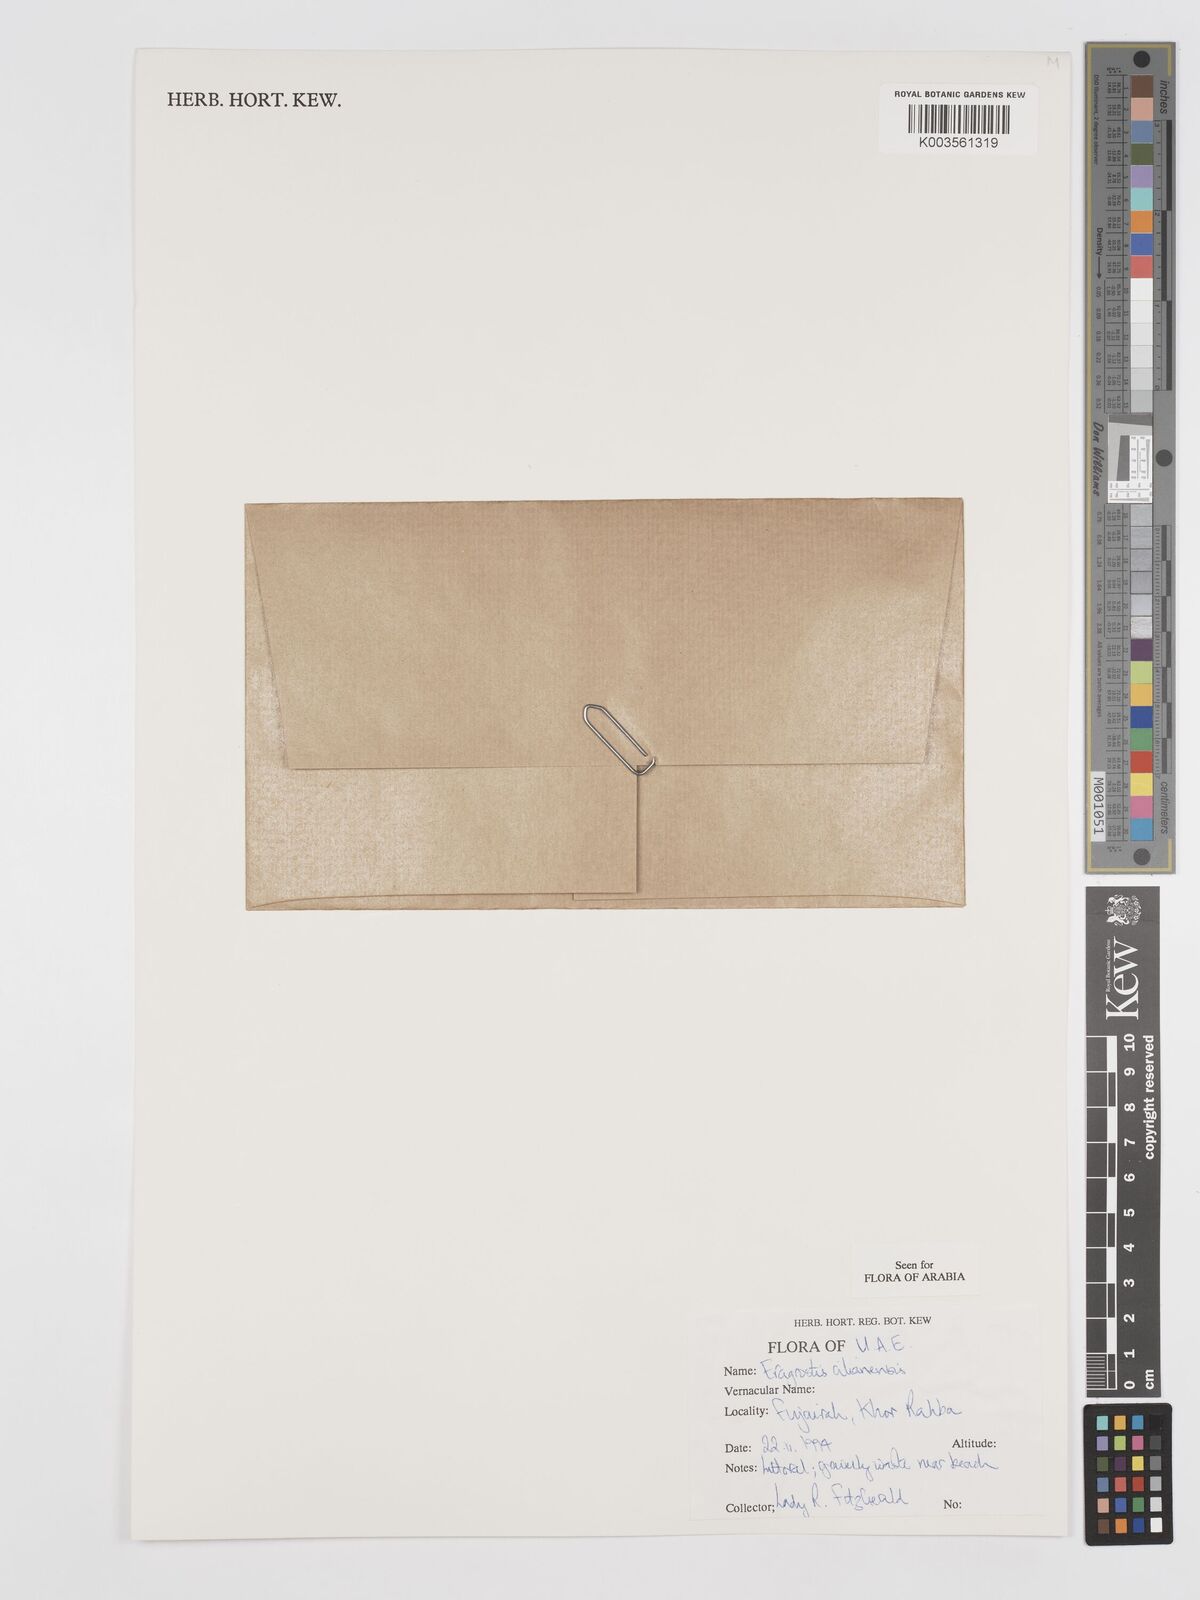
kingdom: Plantae
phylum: Tracheophyta
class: Liliopsida
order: Poales
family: Poaceae
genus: Eragrostis
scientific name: Eragrostis cilianensis
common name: Stinkgrass
